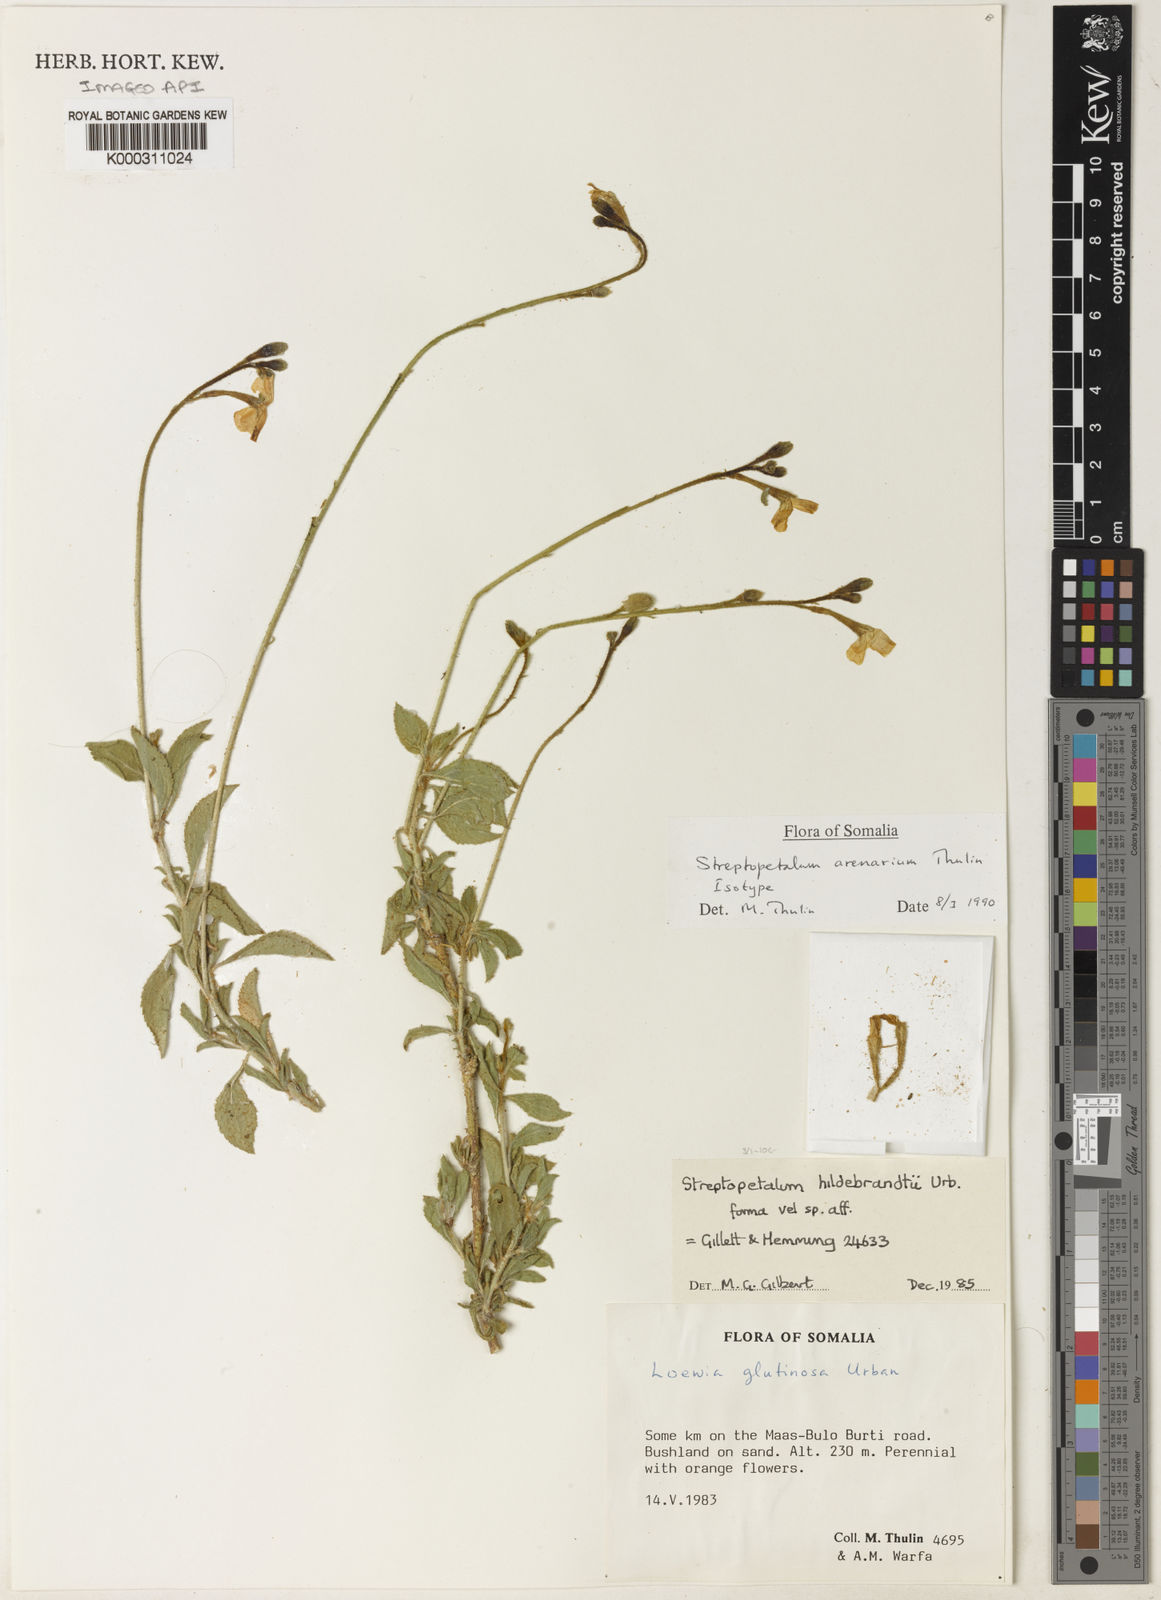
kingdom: Plantae
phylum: Tracheophyta
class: Magnoliopsida
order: Malpighiales
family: Turneraceae
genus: Streptopetalum
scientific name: Streptopetalum arenarium
